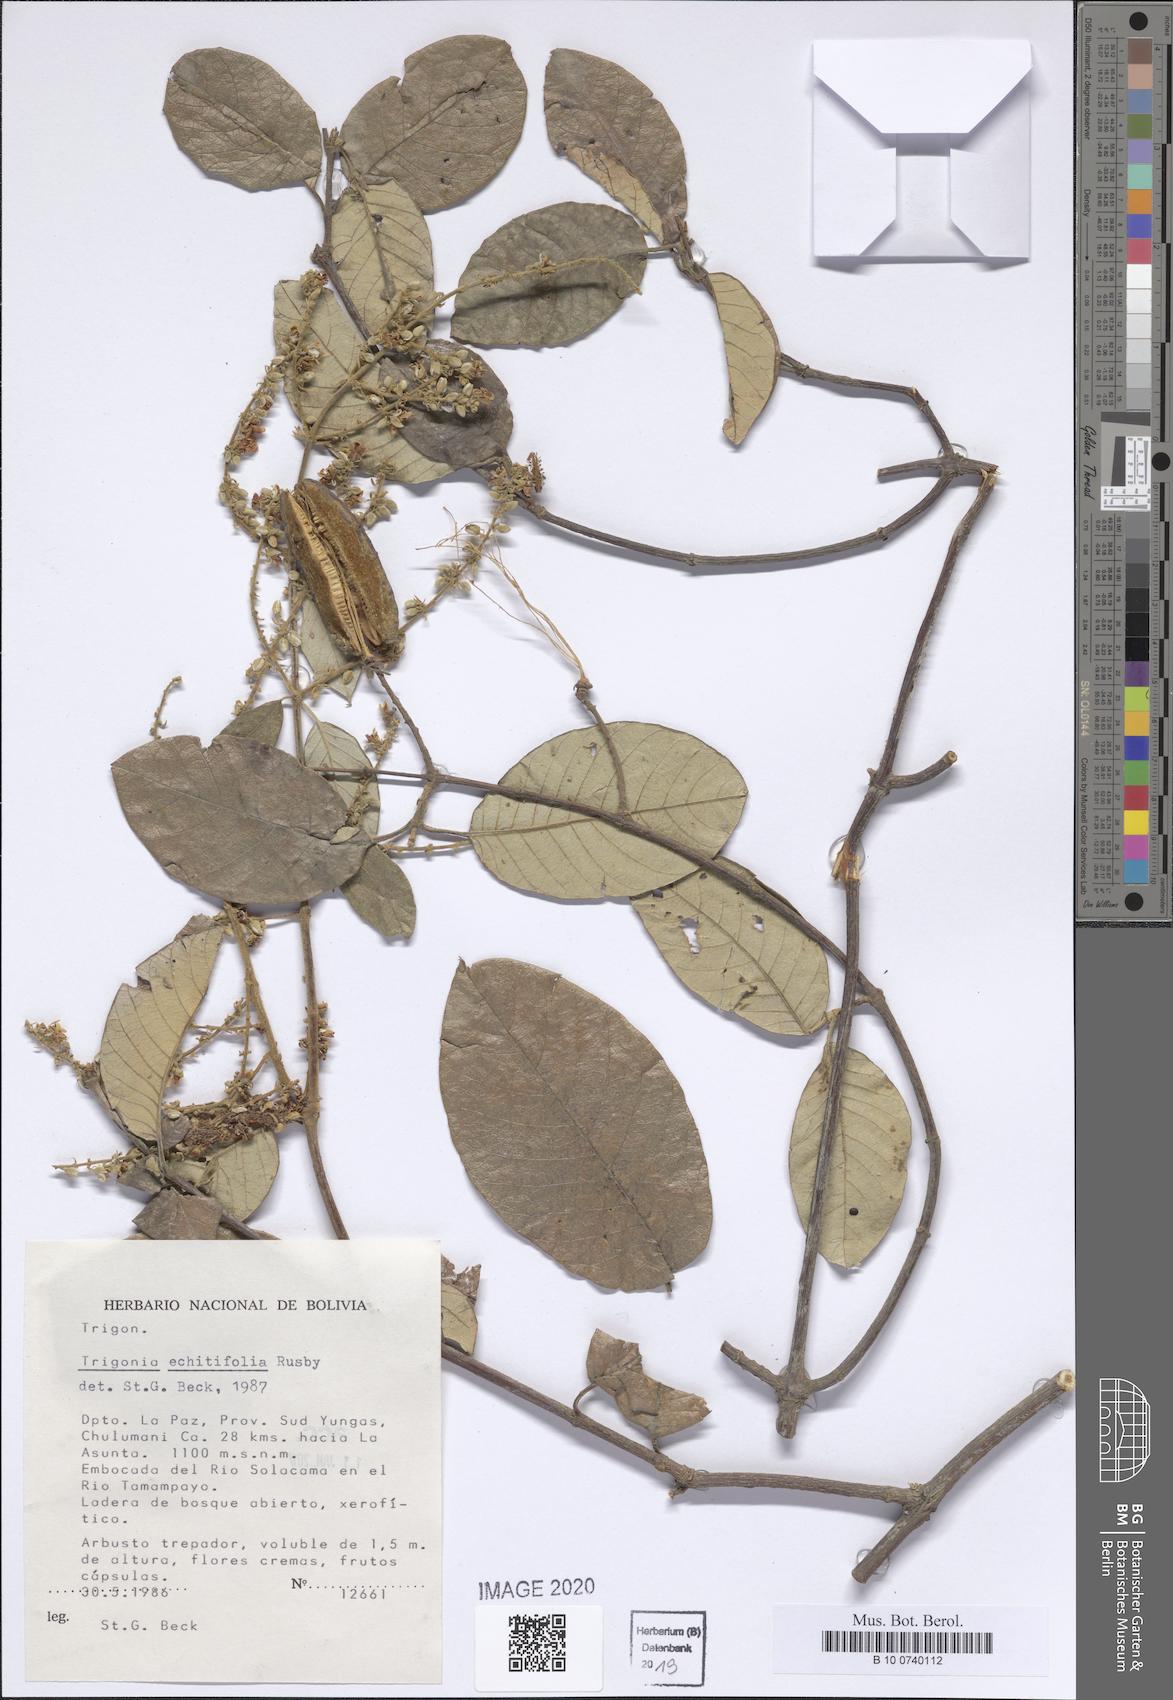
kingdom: Plantae
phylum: Tracheophyta
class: Magnoliopsida
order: Malpighiales
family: Trigoniaceae
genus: Trigonia
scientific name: Trigonia floccosa
